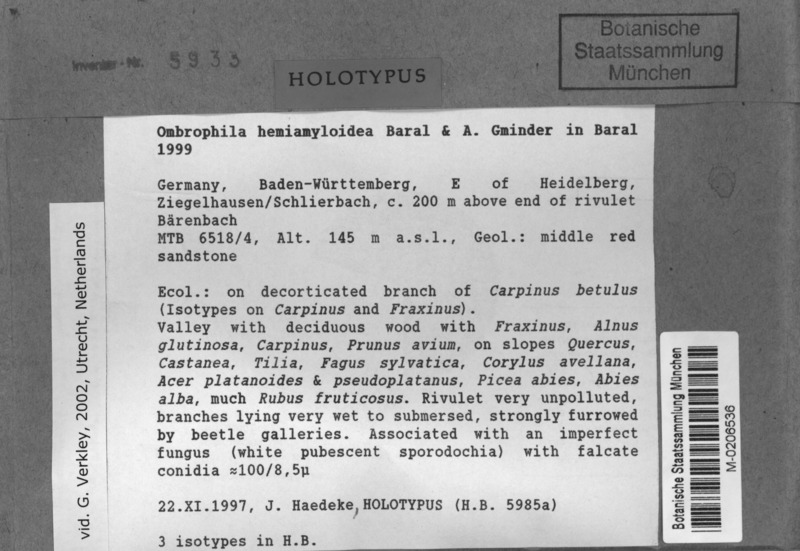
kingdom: Fungi
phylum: Ascomycota
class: Leotiomycetes
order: Helotiales
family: Gelatinodiscaceae
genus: Ombrophila
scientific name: Ombrophila hemiamyloidea
